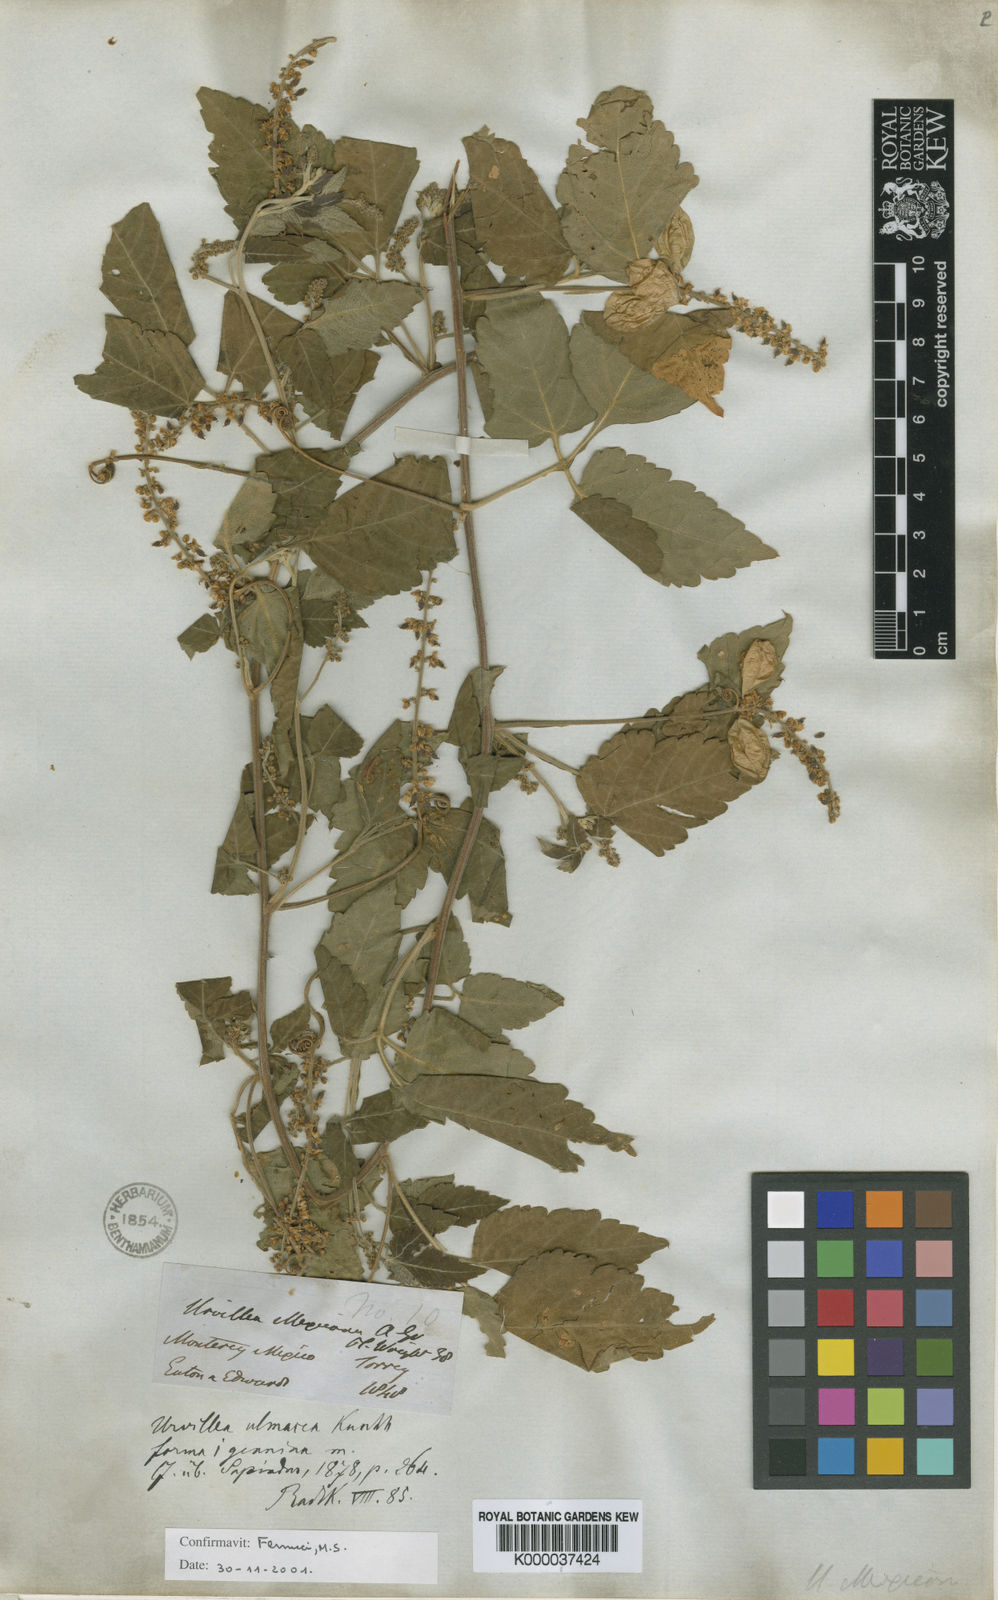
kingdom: Plantae
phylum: Tracheophyta
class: Magnoliopsida
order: Sapindales
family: Sapindaceae
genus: Urvillea
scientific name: Urvillea ulmacea
